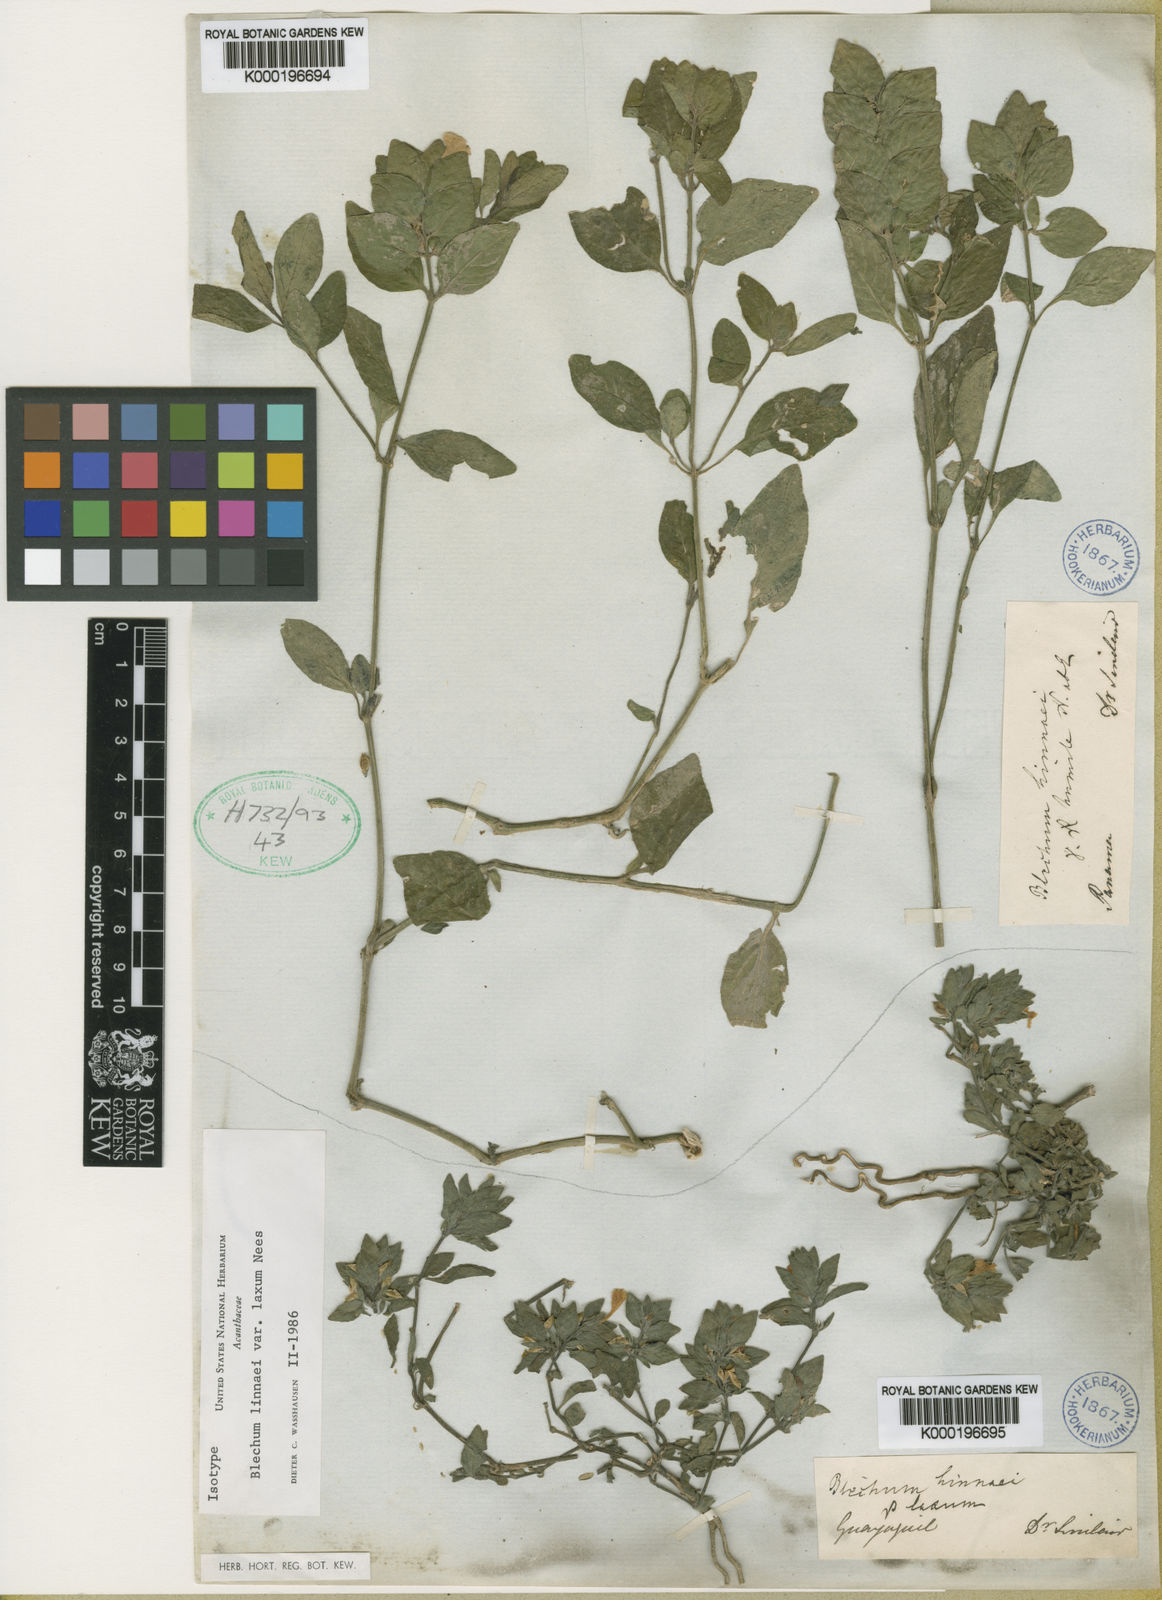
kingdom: Plantae
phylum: Tracheophyta
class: Magnoliopsida
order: Lamiales
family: Acanthaceae
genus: Ruellia
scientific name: Ruellia blechum
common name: Browne's blechum
